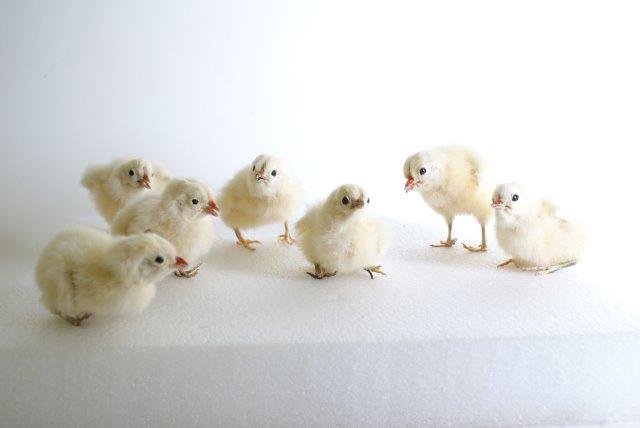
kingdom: Animalia
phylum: Chordata
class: Aves
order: Galliformes
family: Phasianidae
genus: Gallus
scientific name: Gallus gallus
